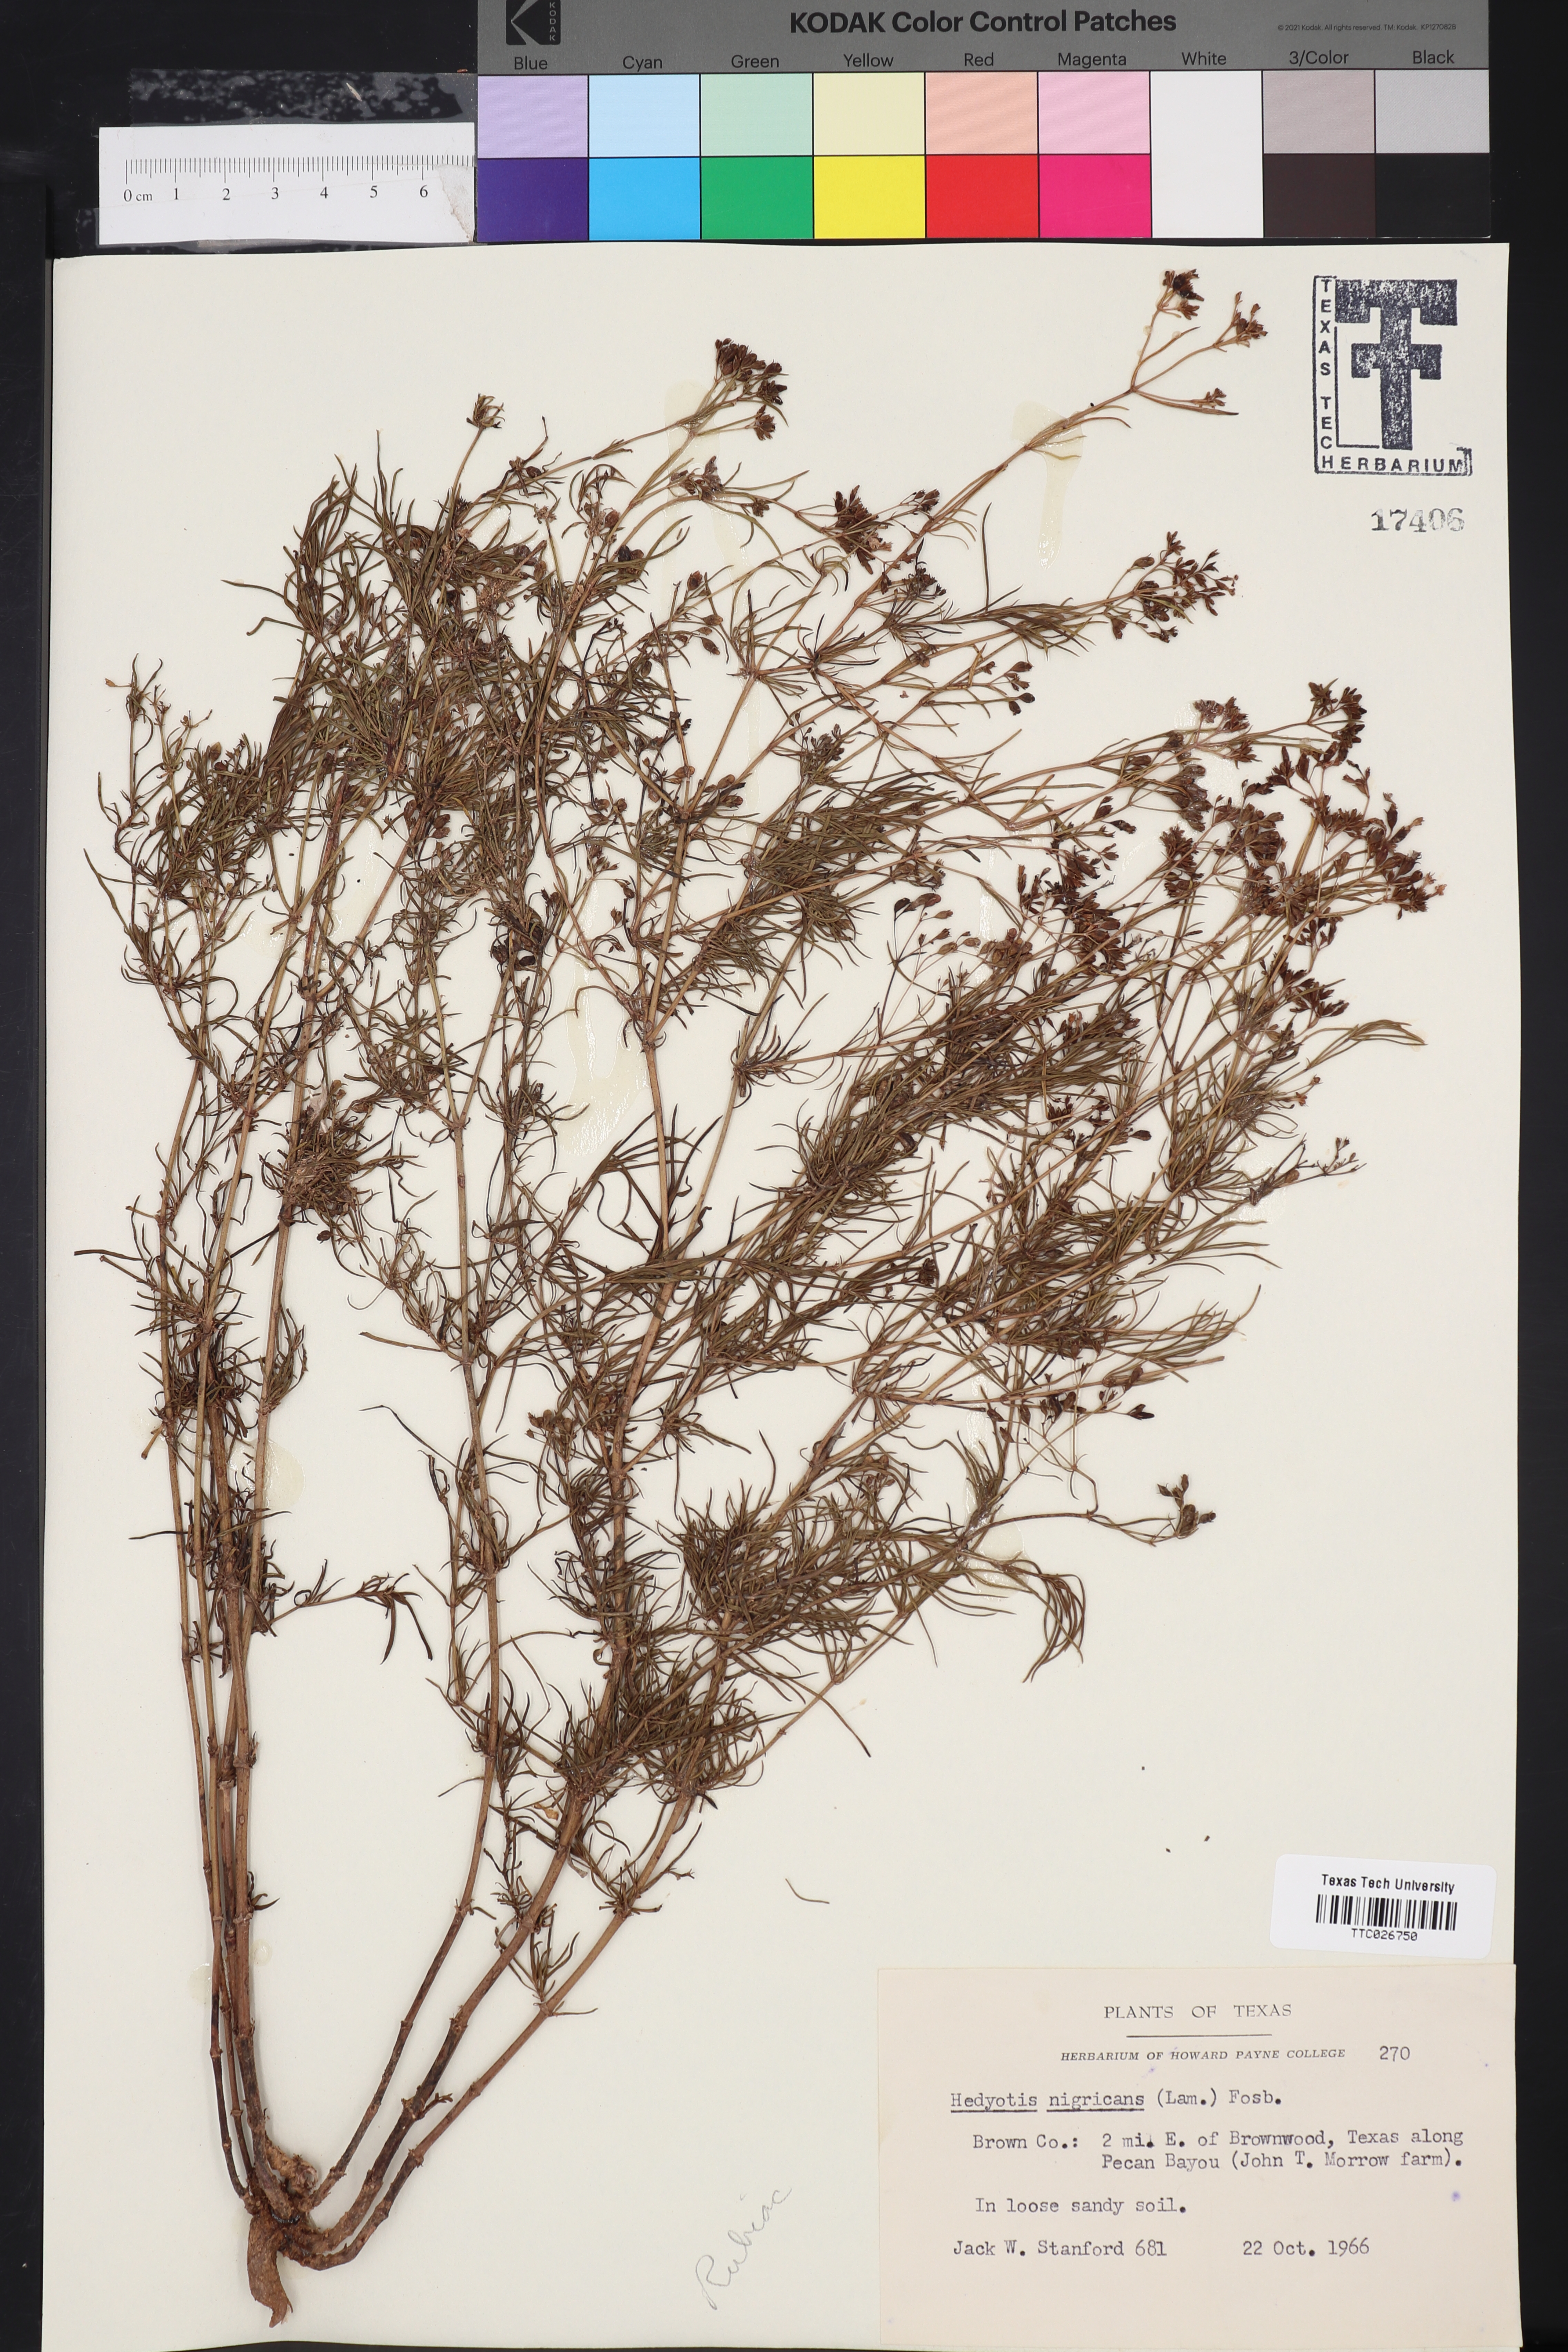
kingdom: Plantae
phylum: Tracheophyta
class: Magnoliopsida
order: Gentianales
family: Rubiaceae
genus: Stenaria
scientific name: Stenaria nigricans
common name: Diamondflowers
